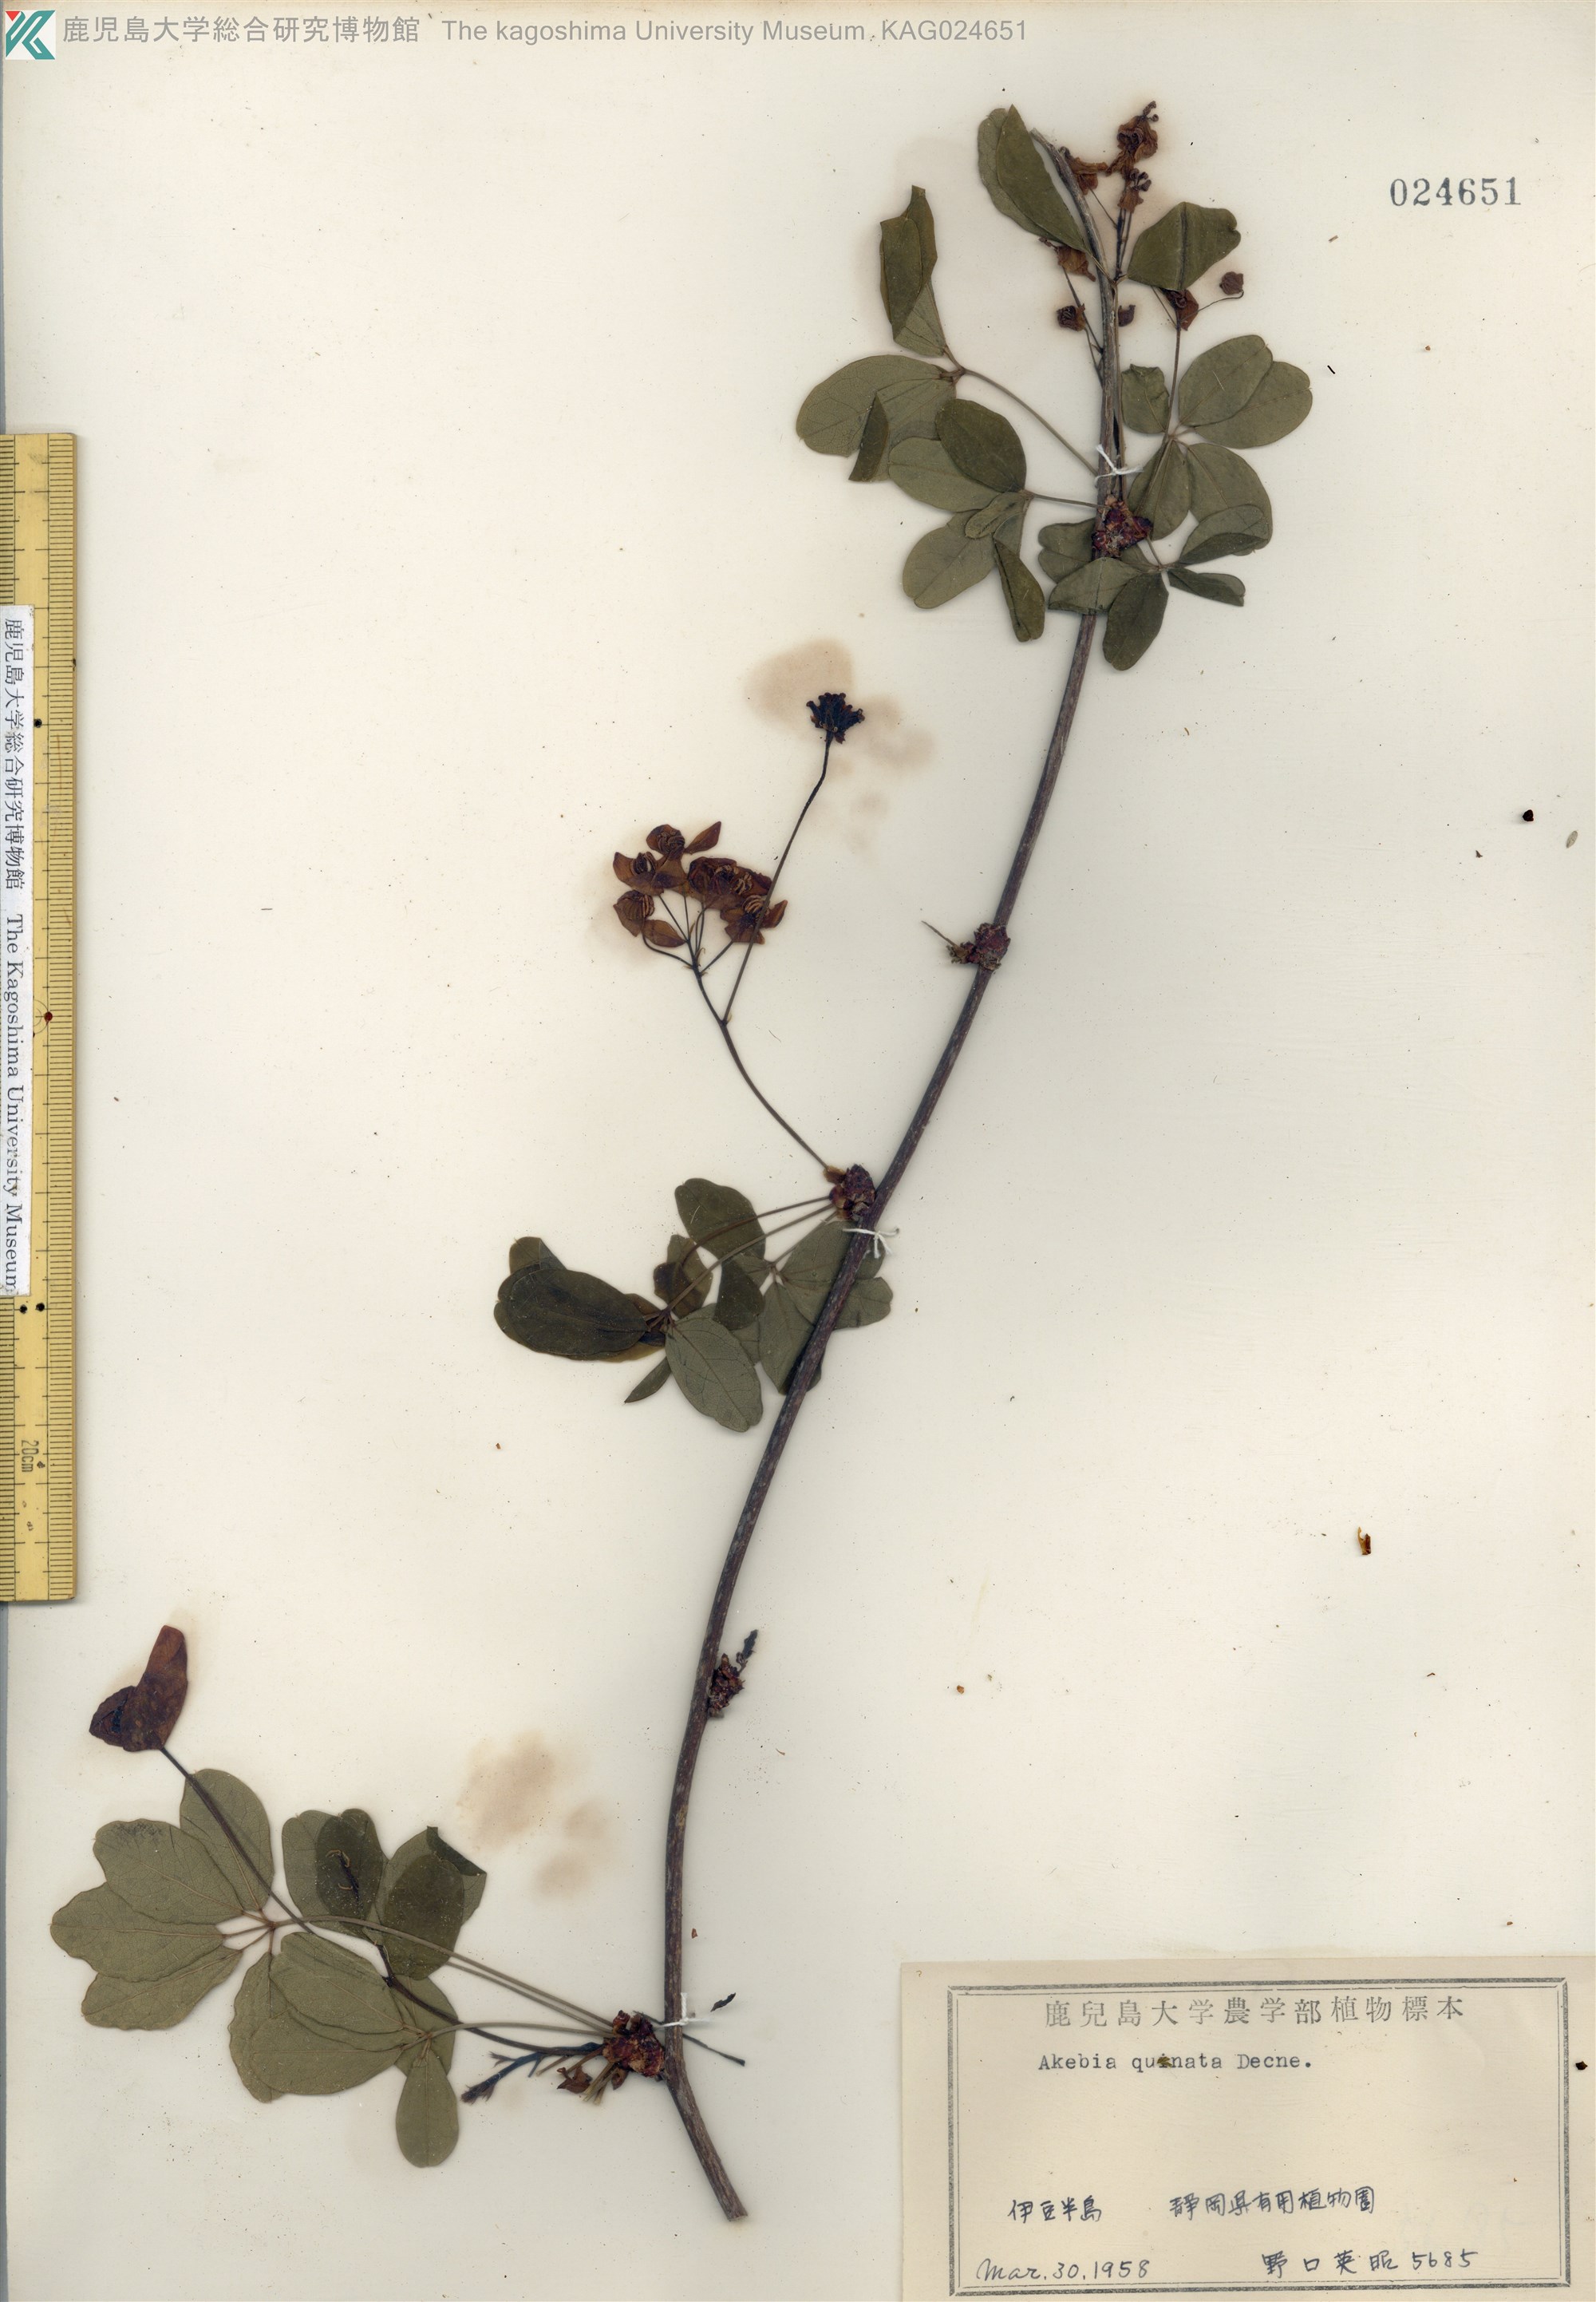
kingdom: Plantae
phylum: Tracheophyta
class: Magnoliopsida
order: Ranunculales
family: Lardizabalaceae
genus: Akebia
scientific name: Akebia quinata
